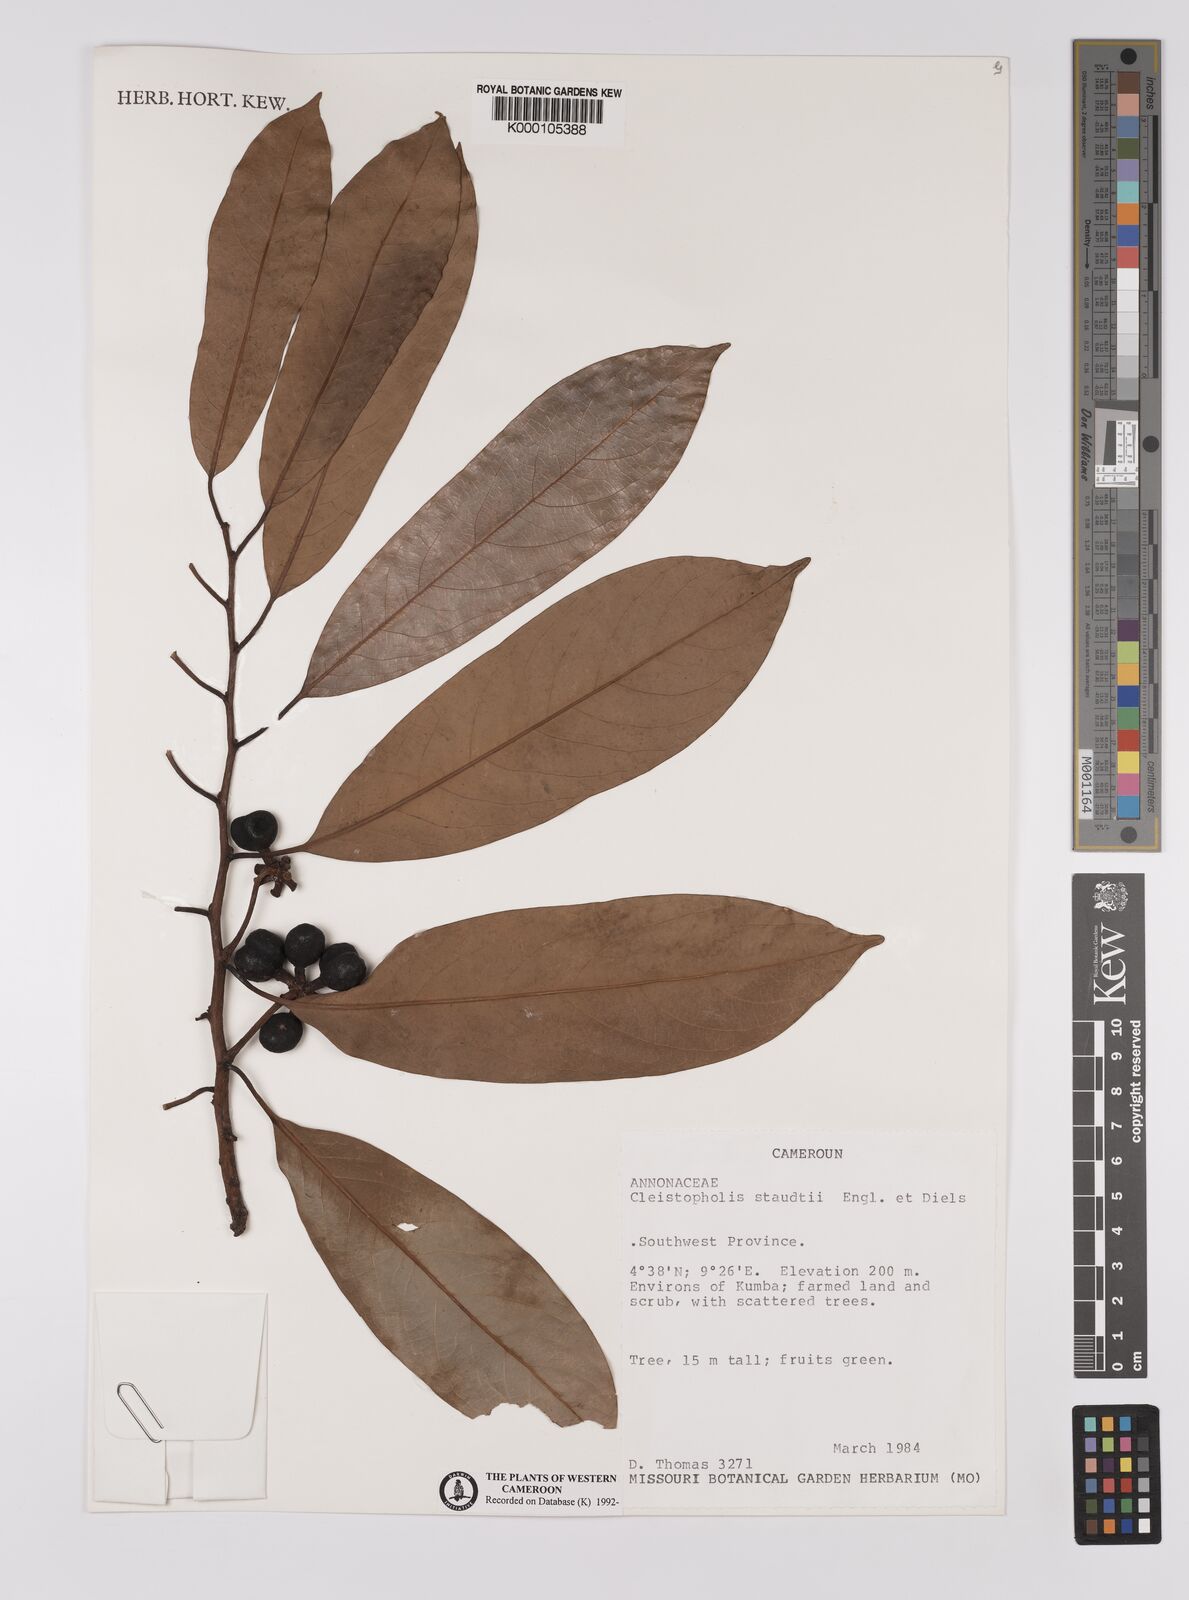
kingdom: Plantae
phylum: Tracheophyta
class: Magnoliopsida
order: Magnoliales
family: Annonaceae
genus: Cleistopholis
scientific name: Cleistopholis staudtii
